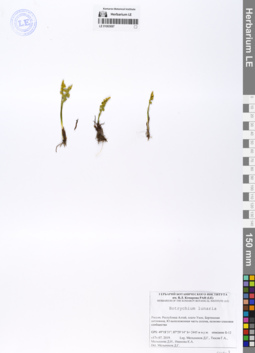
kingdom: Plantae
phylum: Tracheophyta
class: Polypodiopsida
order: Ophioglossales
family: Ophioglossaceae
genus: Botrychium
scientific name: Botrychium lunaria
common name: Moonwort
